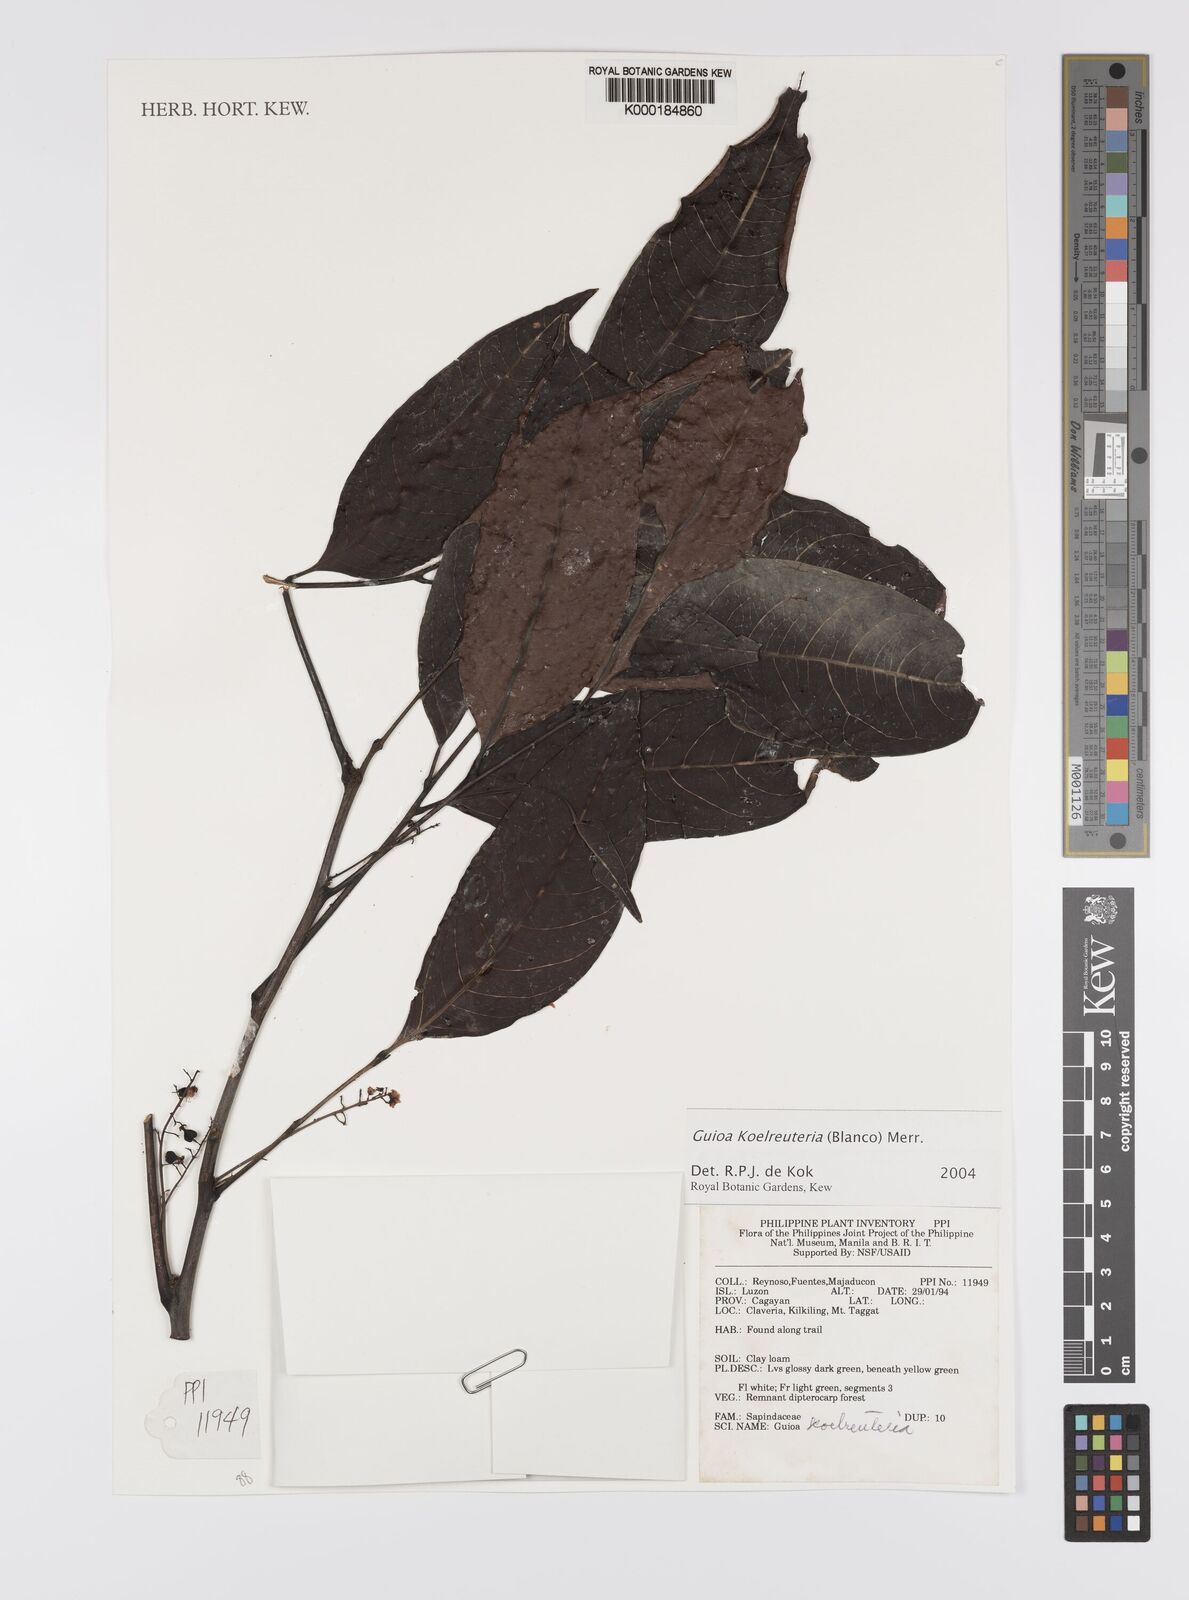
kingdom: Plantae
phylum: Tracheophyta
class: Magnoliopsida
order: Sapindales
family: Sapindaceae
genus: Guioa
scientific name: Guioa koelreuteria
